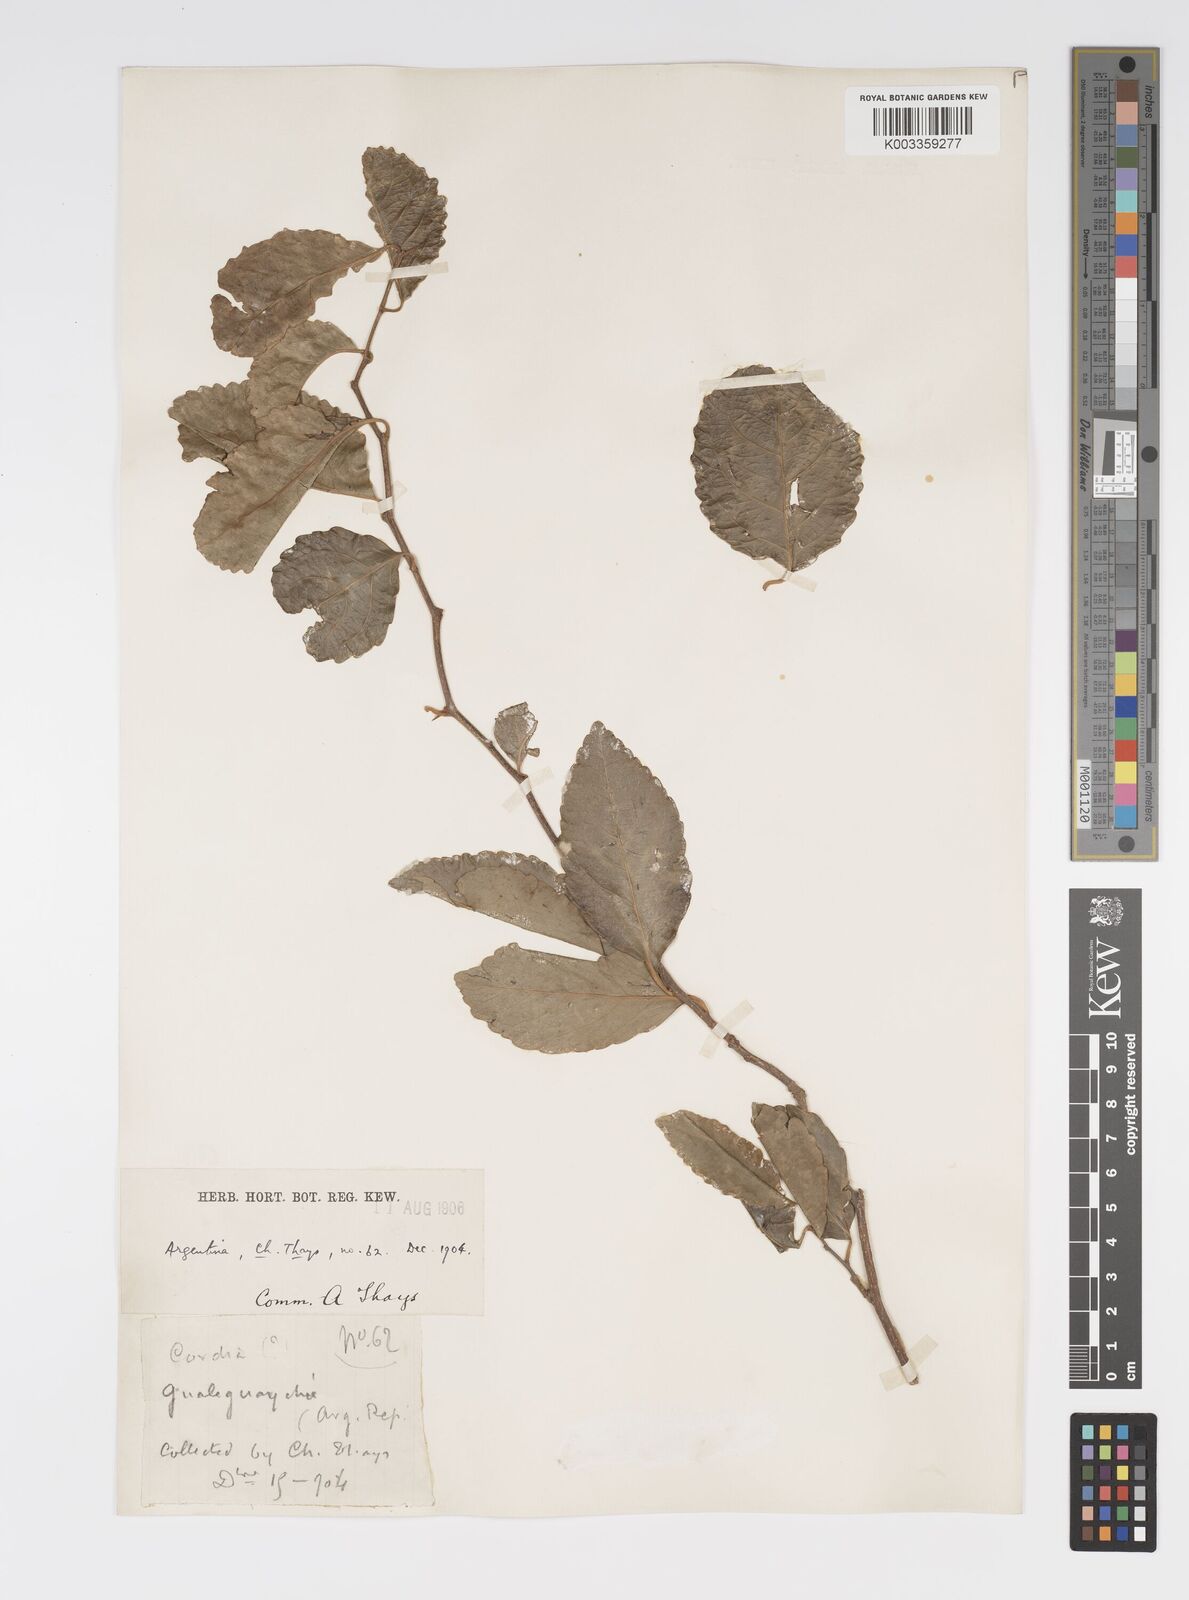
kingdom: Plantae
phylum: Tracheophyta
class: Magnoliopsida
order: Malpighiales
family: Salicaceae
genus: Xylosma
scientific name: Xylosma venosa
